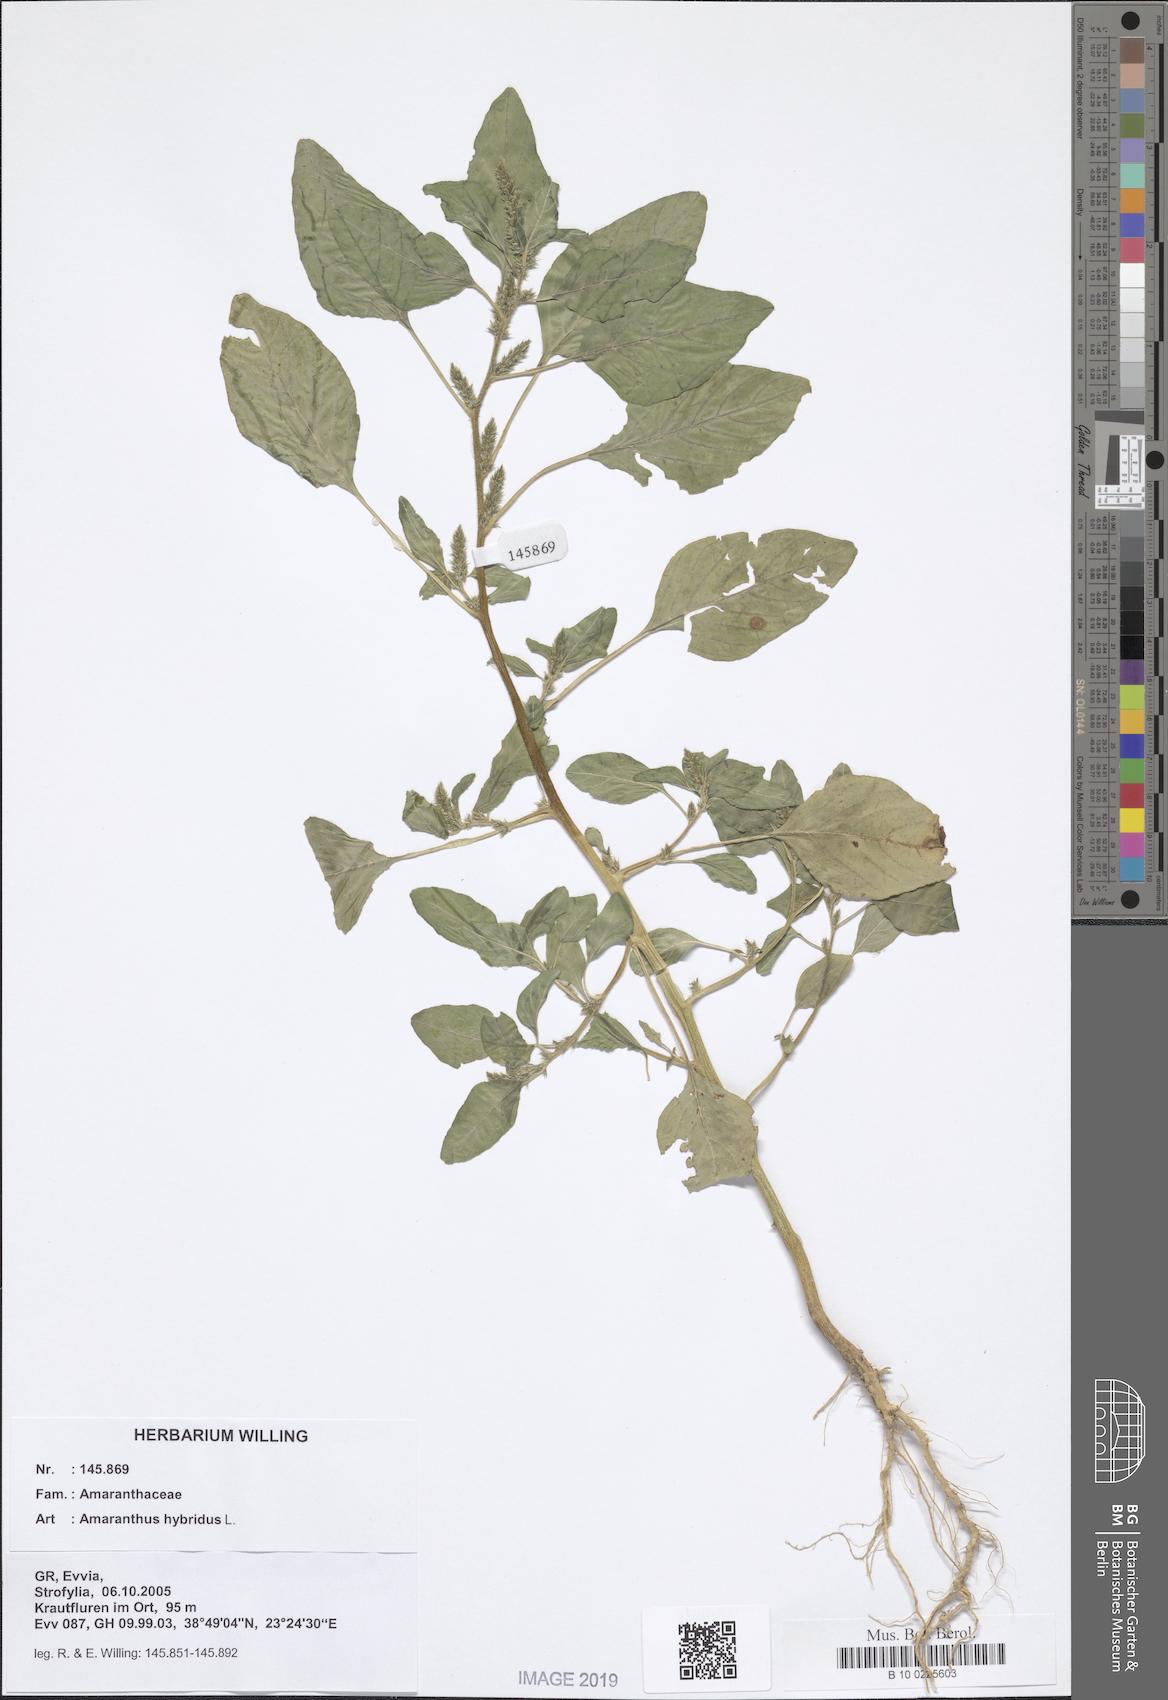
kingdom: Plantae
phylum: Tracheophyta
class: Magnoliopsida
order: Caryophyllales
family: Amaranthaceae
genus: Amaranthus
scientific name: Amaranthus hybridus
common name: Green amaranth
